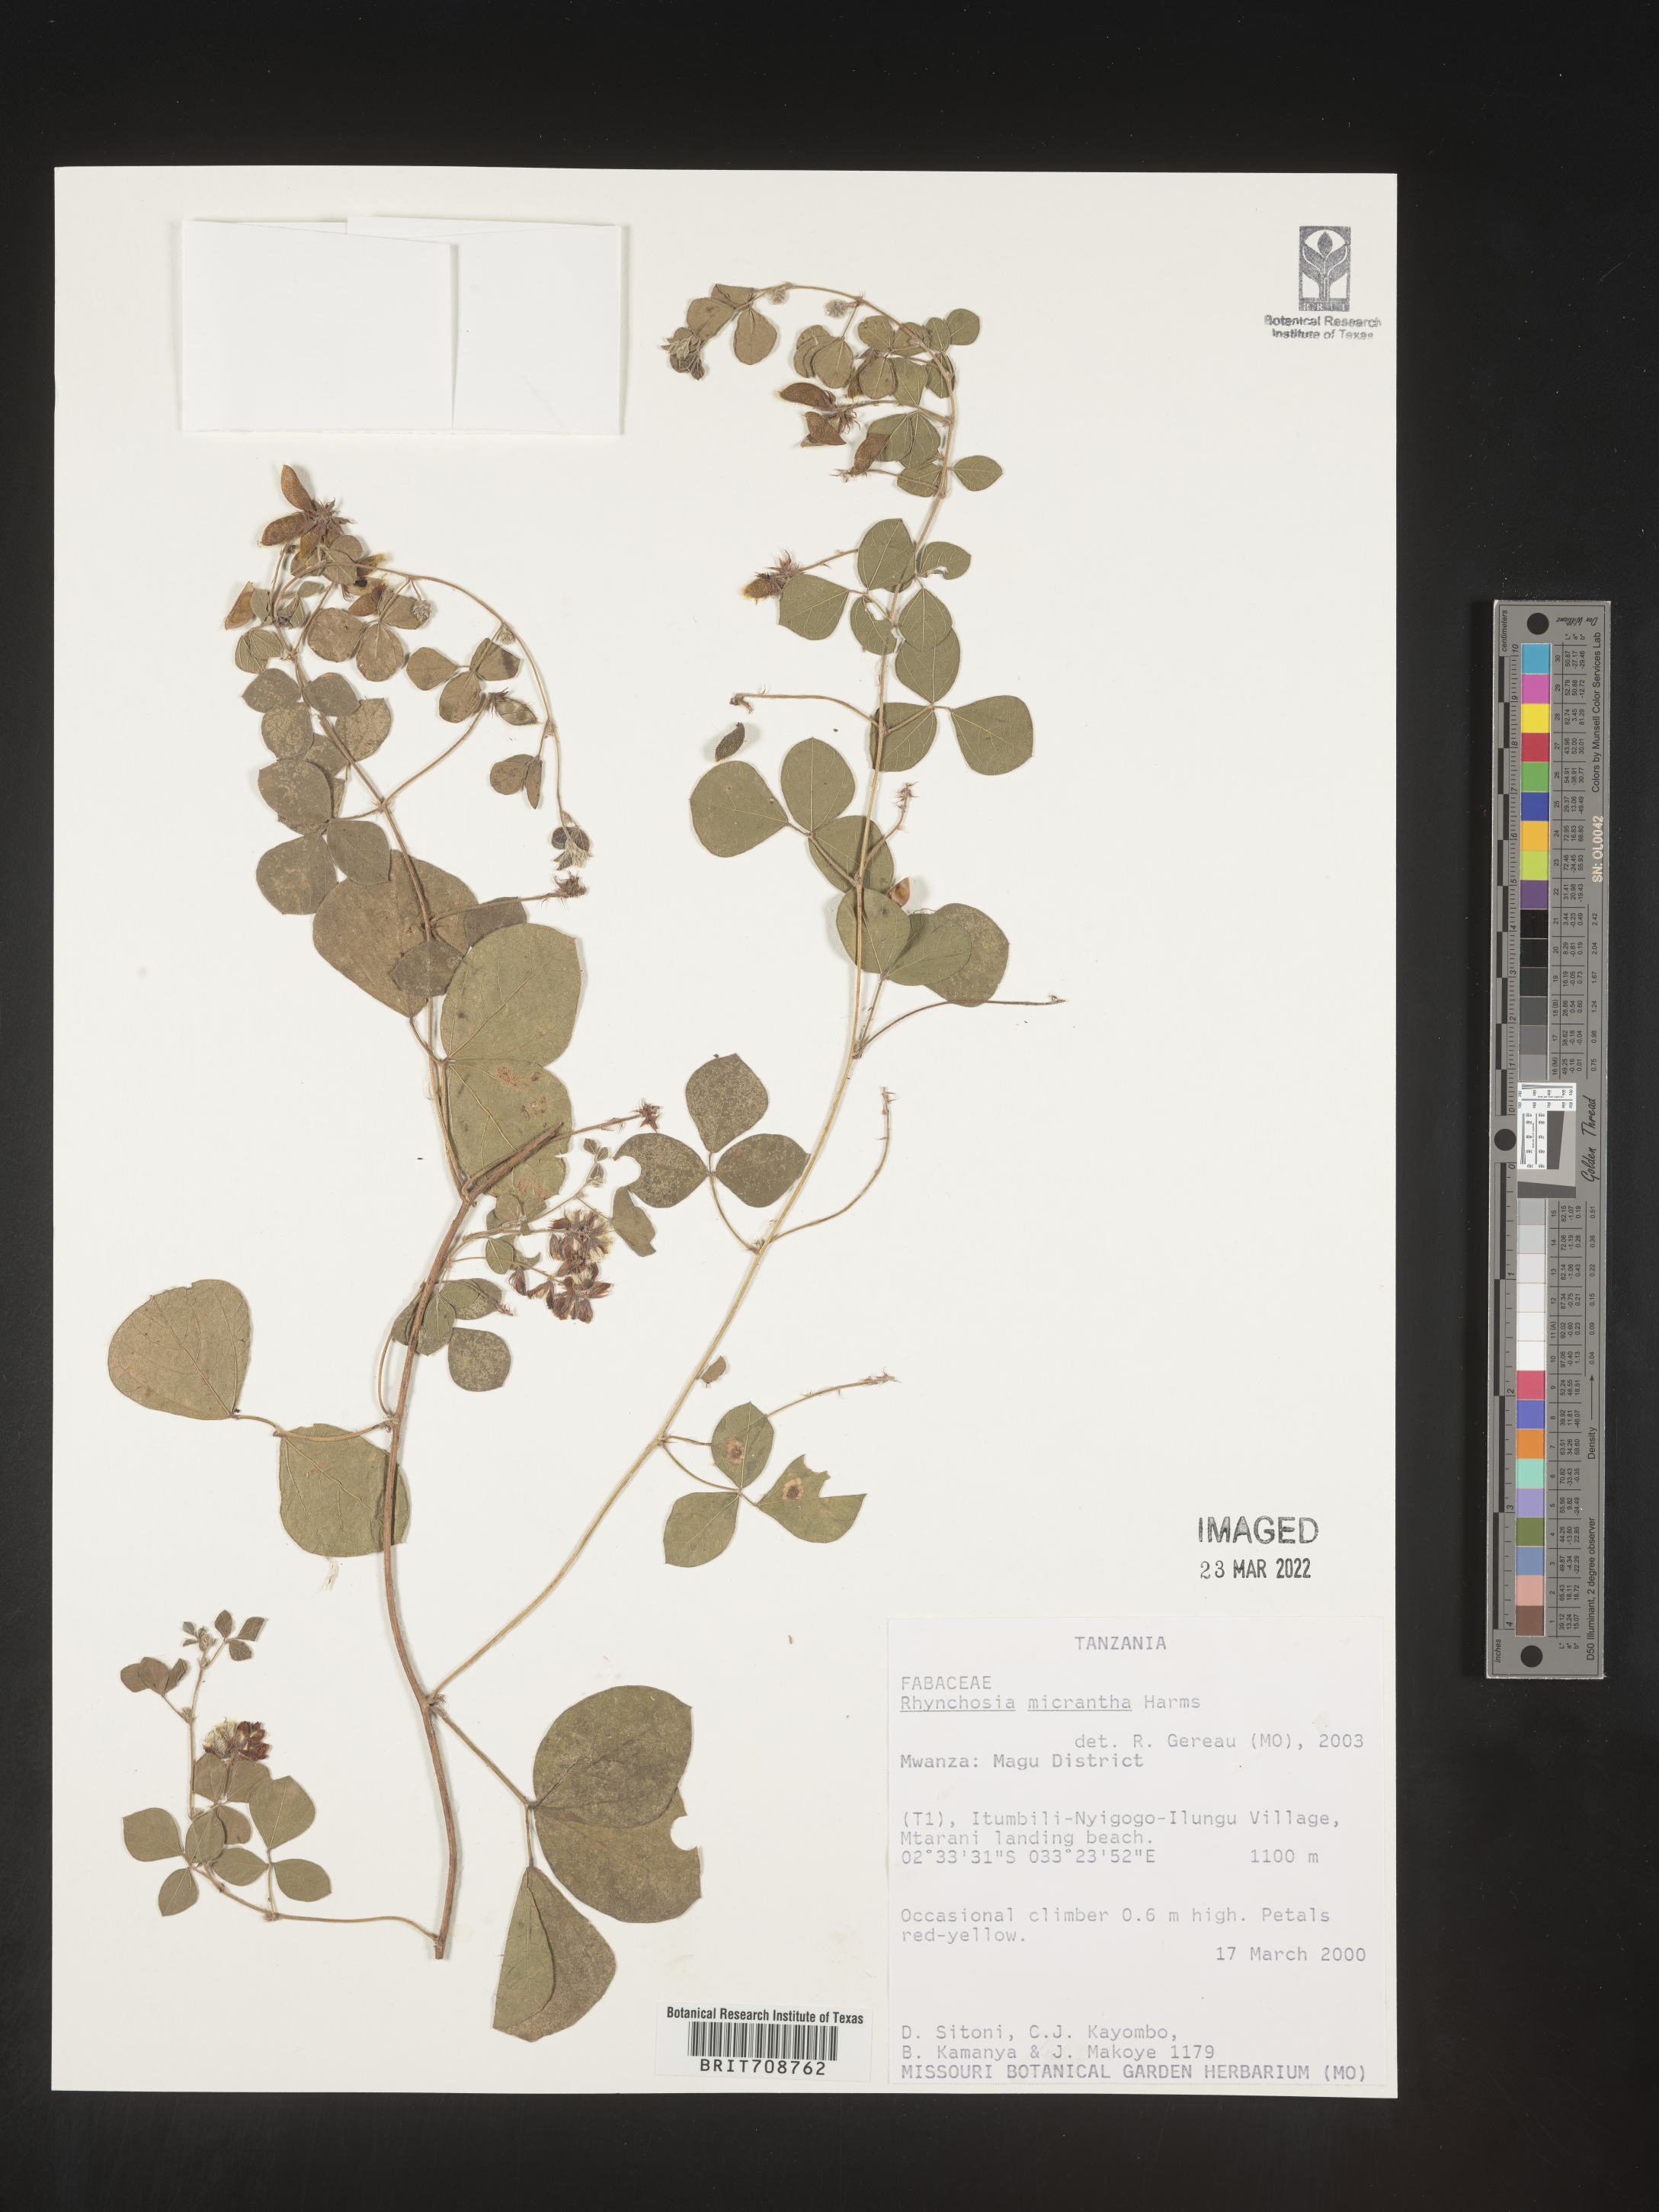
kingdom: Plantae
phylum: Tracheophyta
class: Magnoliopsida
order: Fabales
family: Fabaceae
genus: Rhynchosia
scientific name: Rhynchosia
